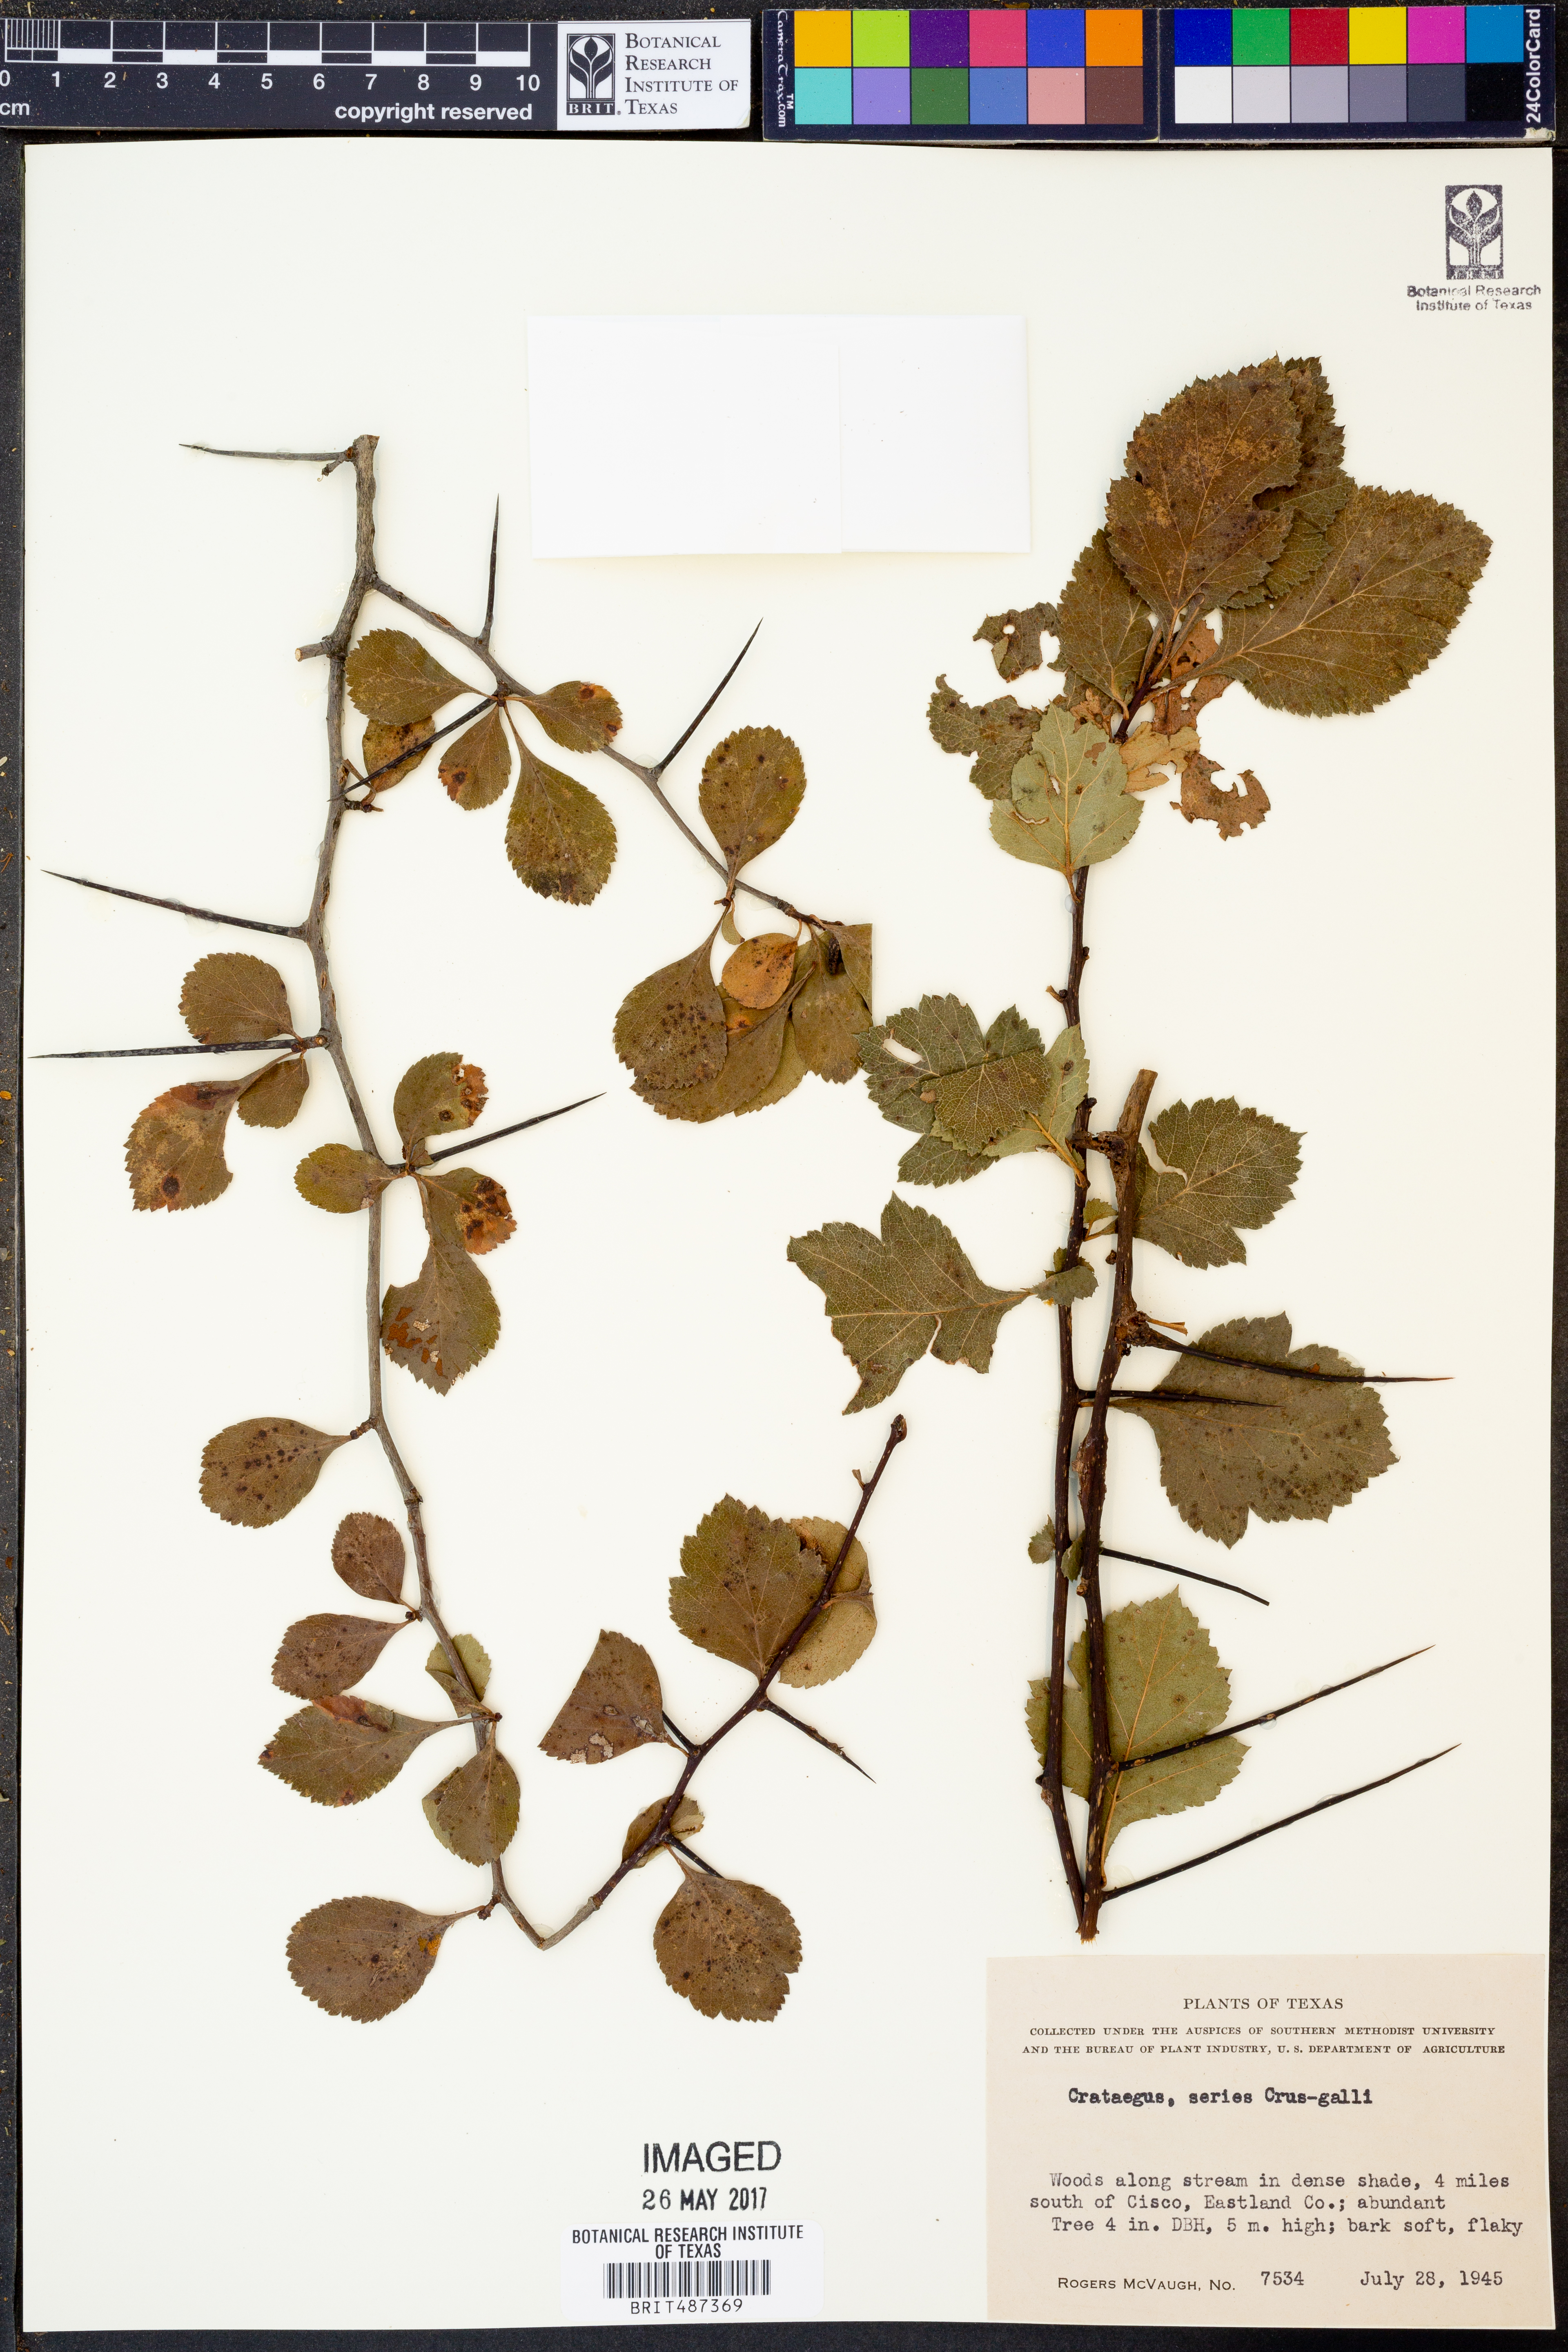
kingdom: Plantae
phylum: Tracheophyta
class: Magnoliopsida
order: Rosales
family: Rosaceae
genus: Crataegus
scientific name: Crataegus crus-galli
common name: Cockspurthorn
